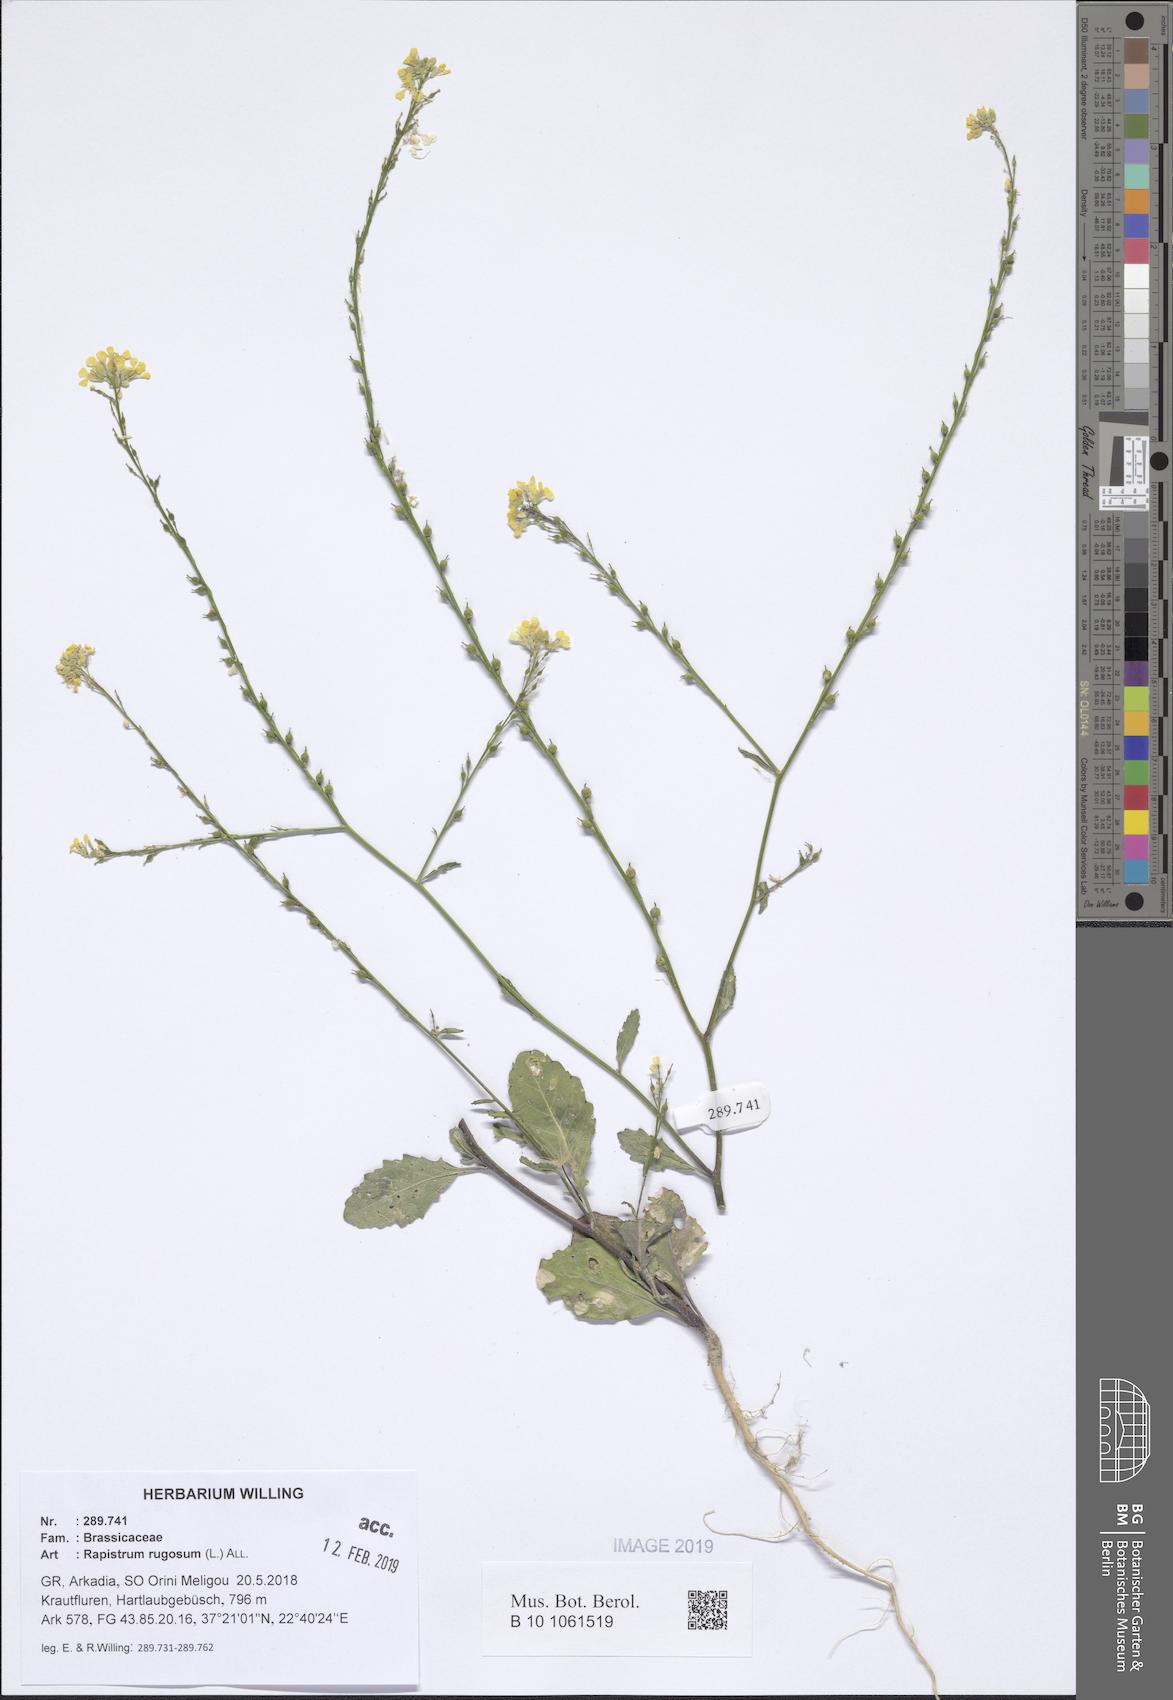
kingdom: Plantae
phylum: Tracheophyta
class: Magnoliopsida
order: Brassicales
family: Brassicaceae
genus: Rapistrum
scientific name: Rapistrum rugosum
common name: Annual bastardcabbage
